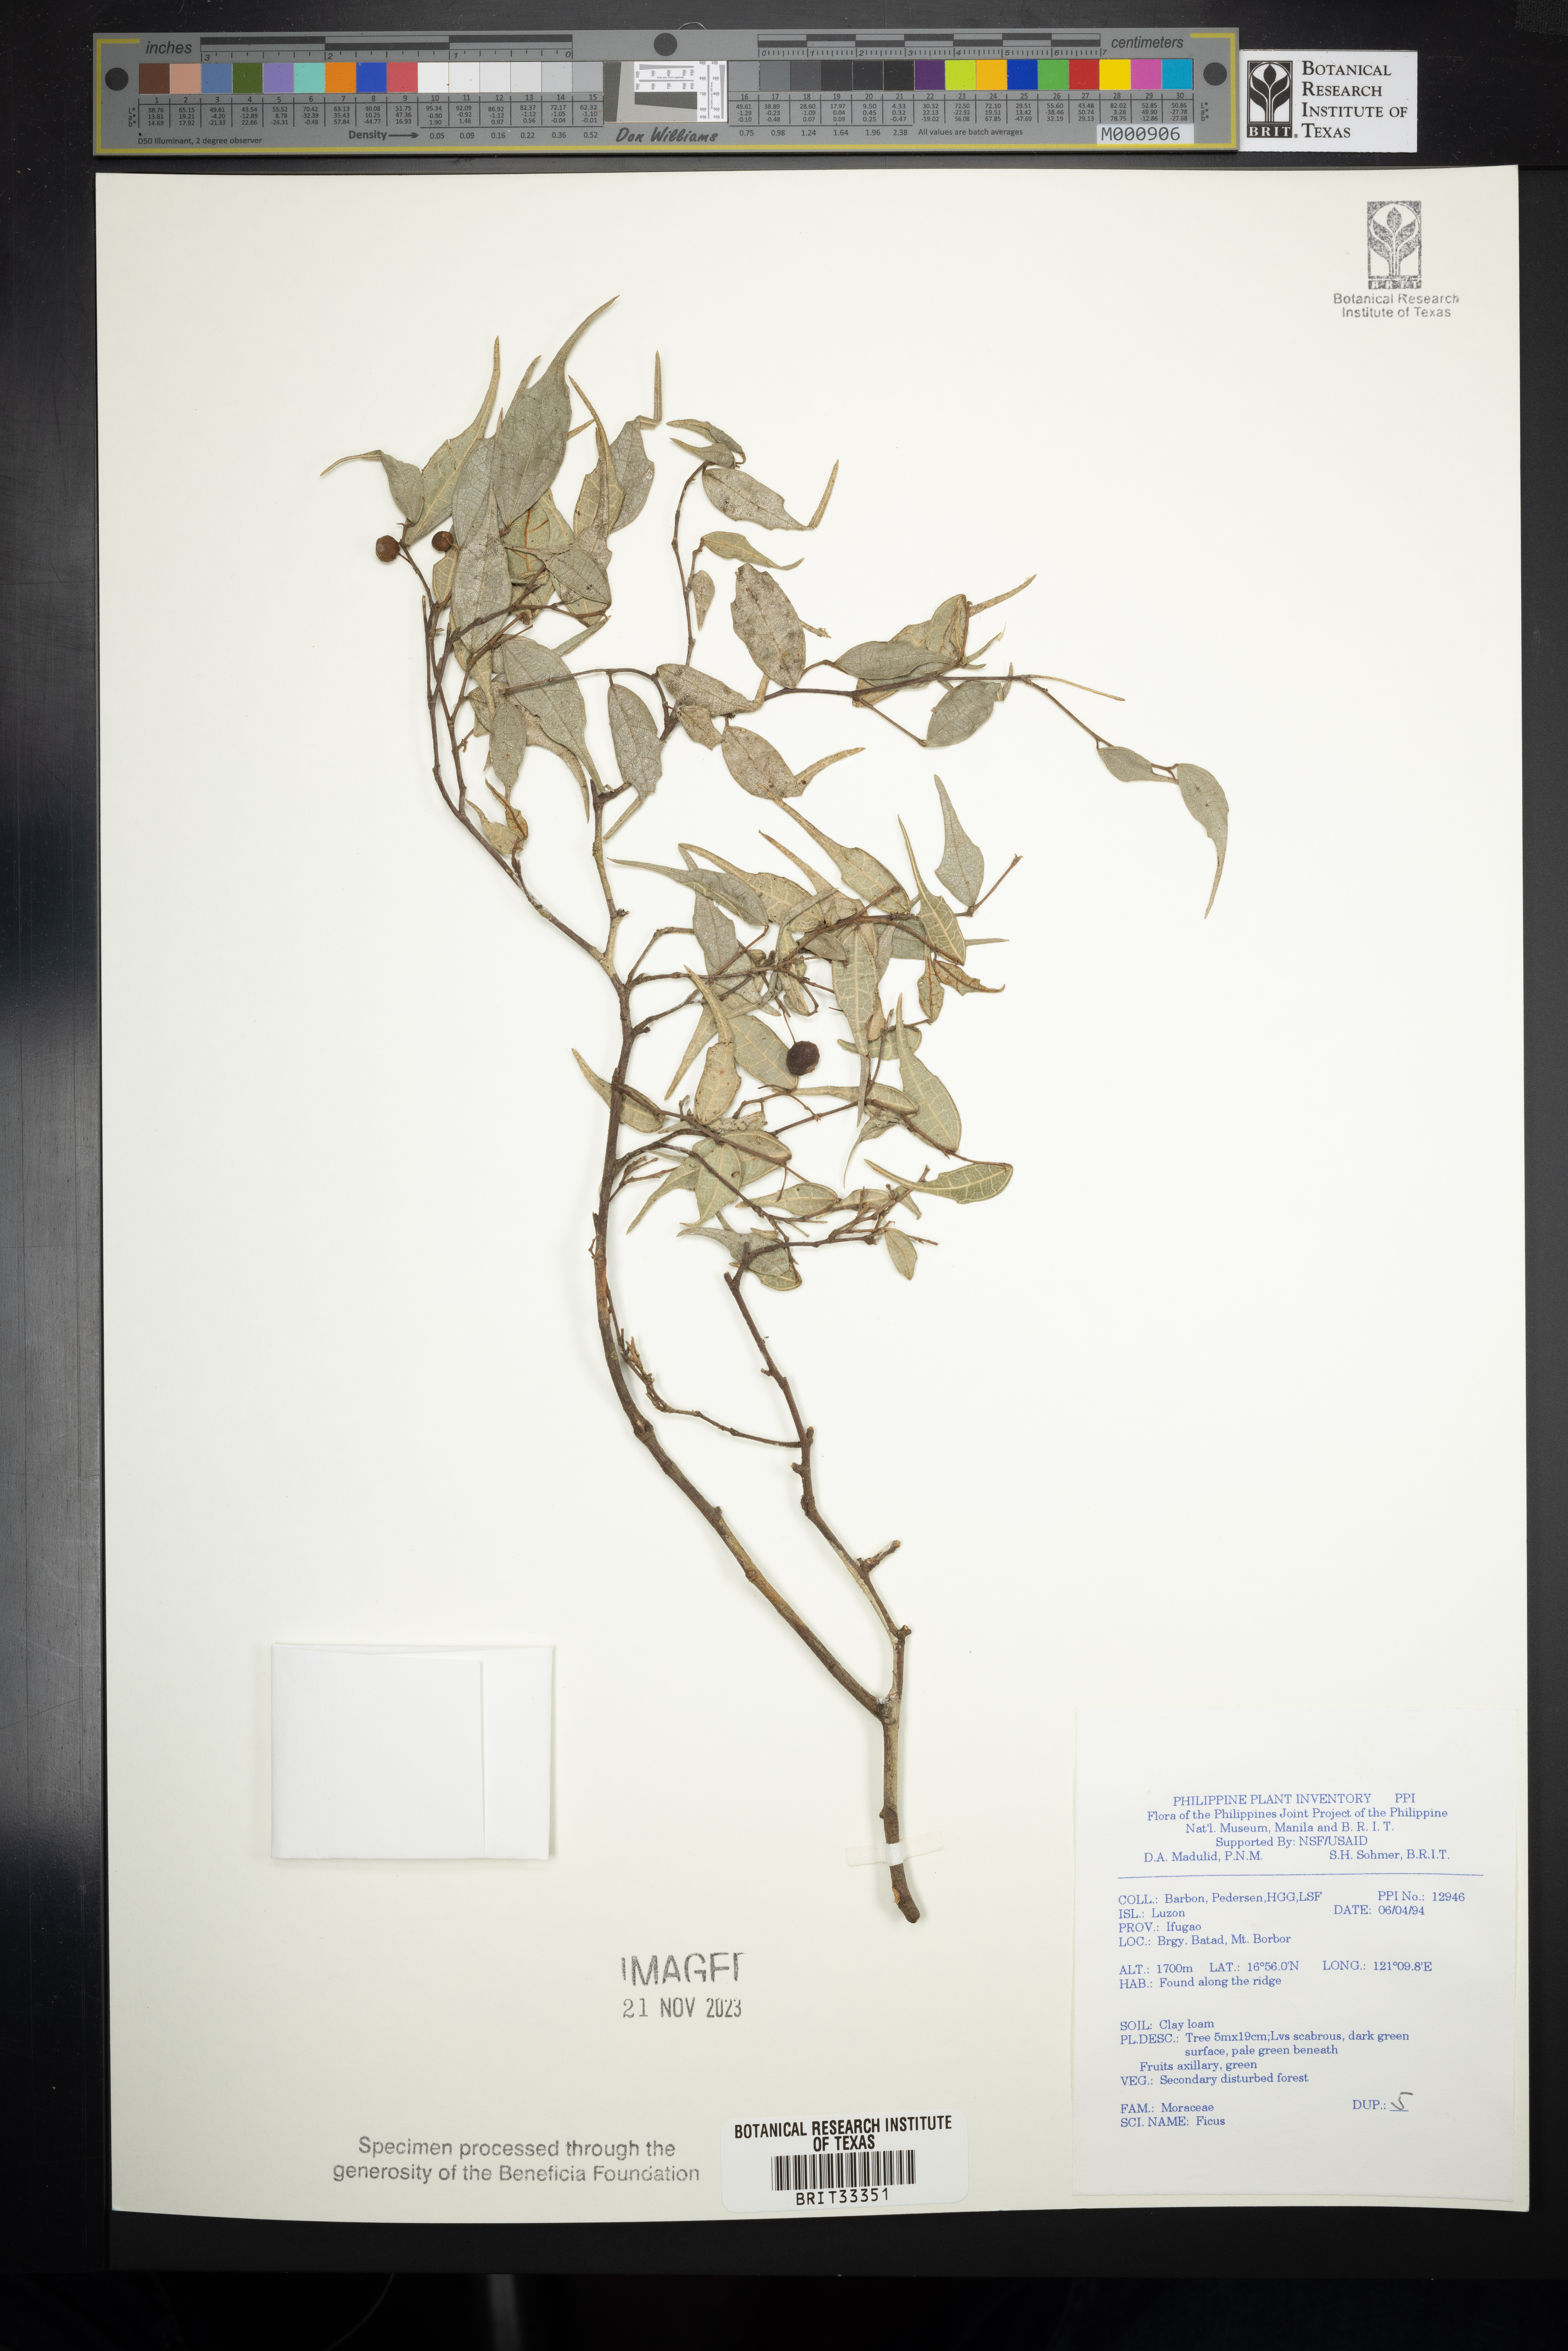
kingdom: Plantae
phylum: Tracheophyta
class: Magnoliopsida
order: Rosales
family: Moraceae
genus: Ficus
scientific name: Ficus
